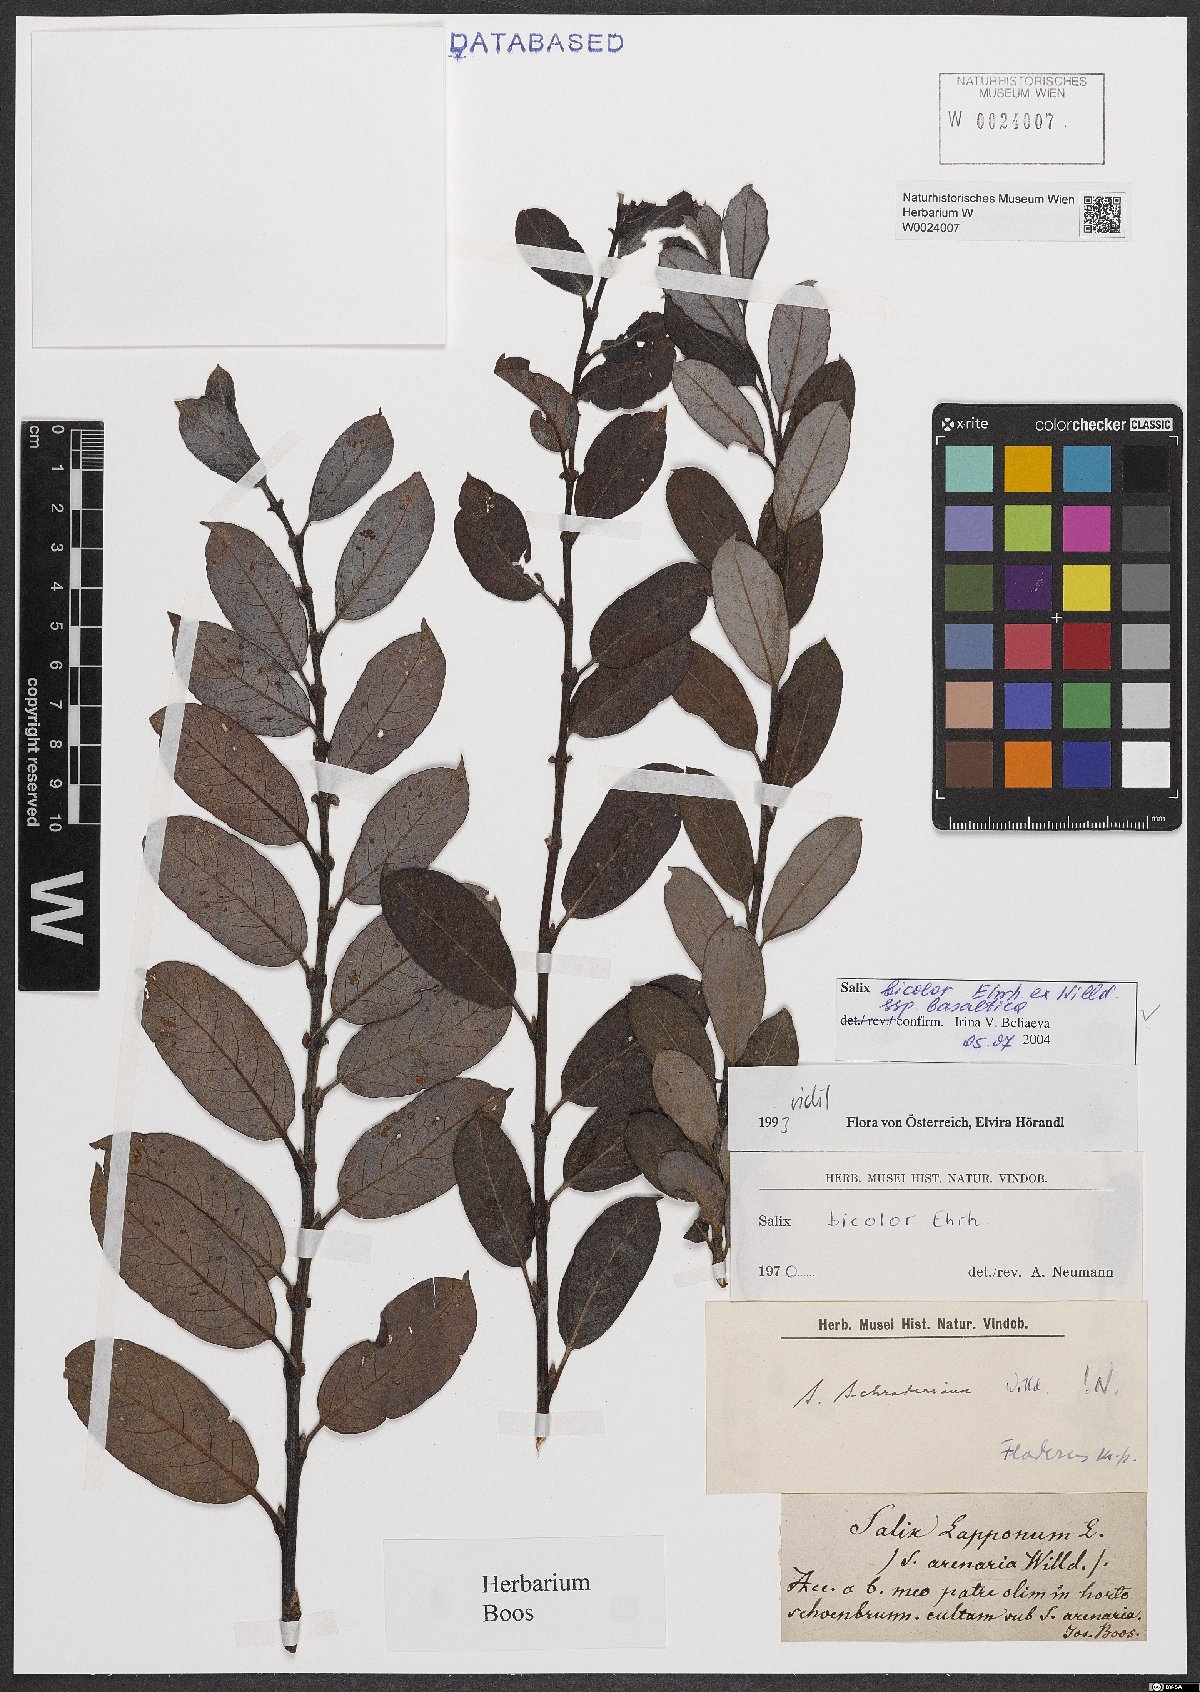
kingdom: Plantae
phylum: Tracheophyta
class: Magnoliopsida
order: Malpighiales
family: Salicaceae
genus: Salix
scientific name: Salix basaltica
